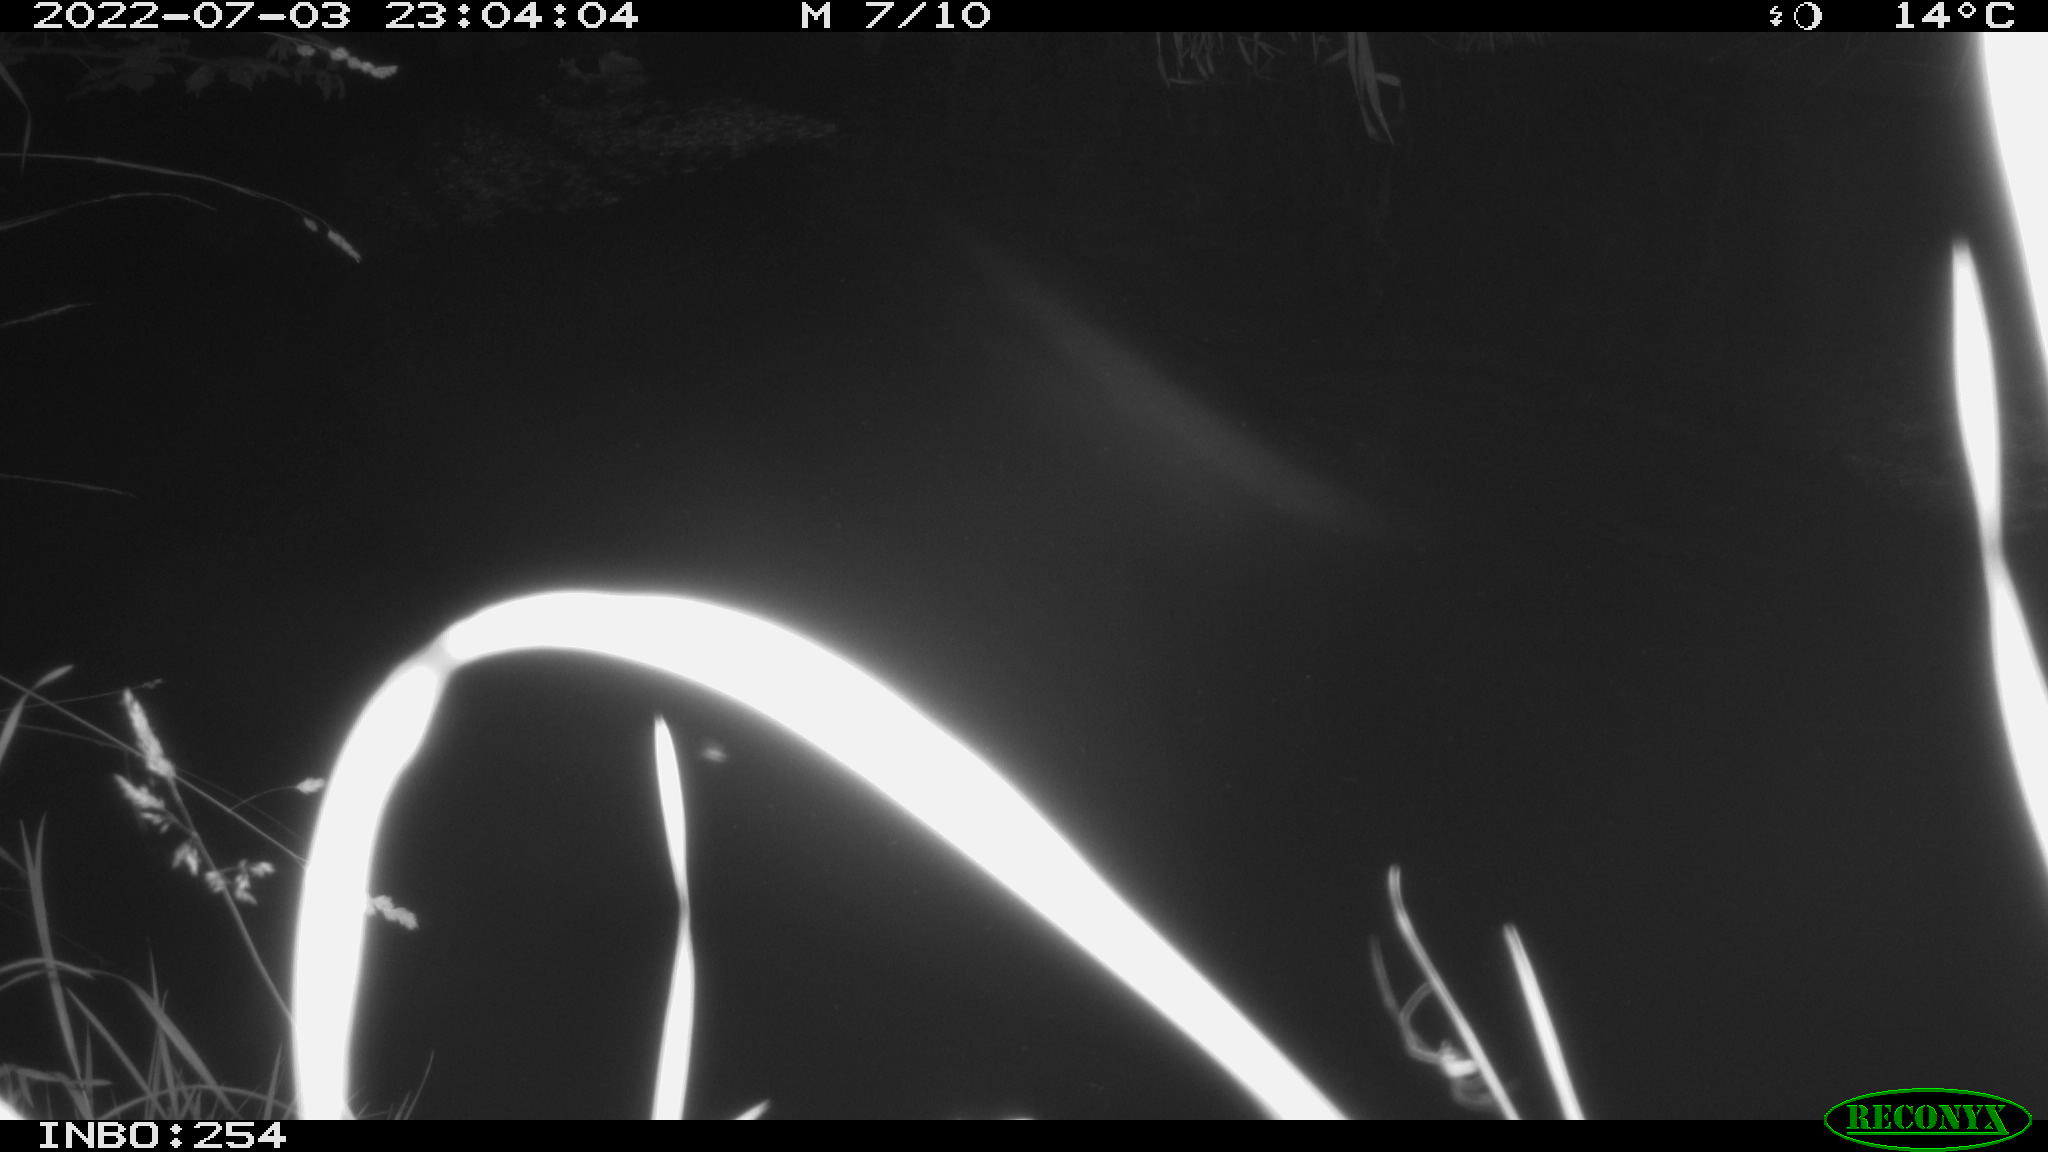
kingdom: Animalia
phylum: Chordata
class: Aves
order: Anseriformes
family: Anatidae
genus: Anas
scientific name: Anas platyrhynchos
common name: Mallard
